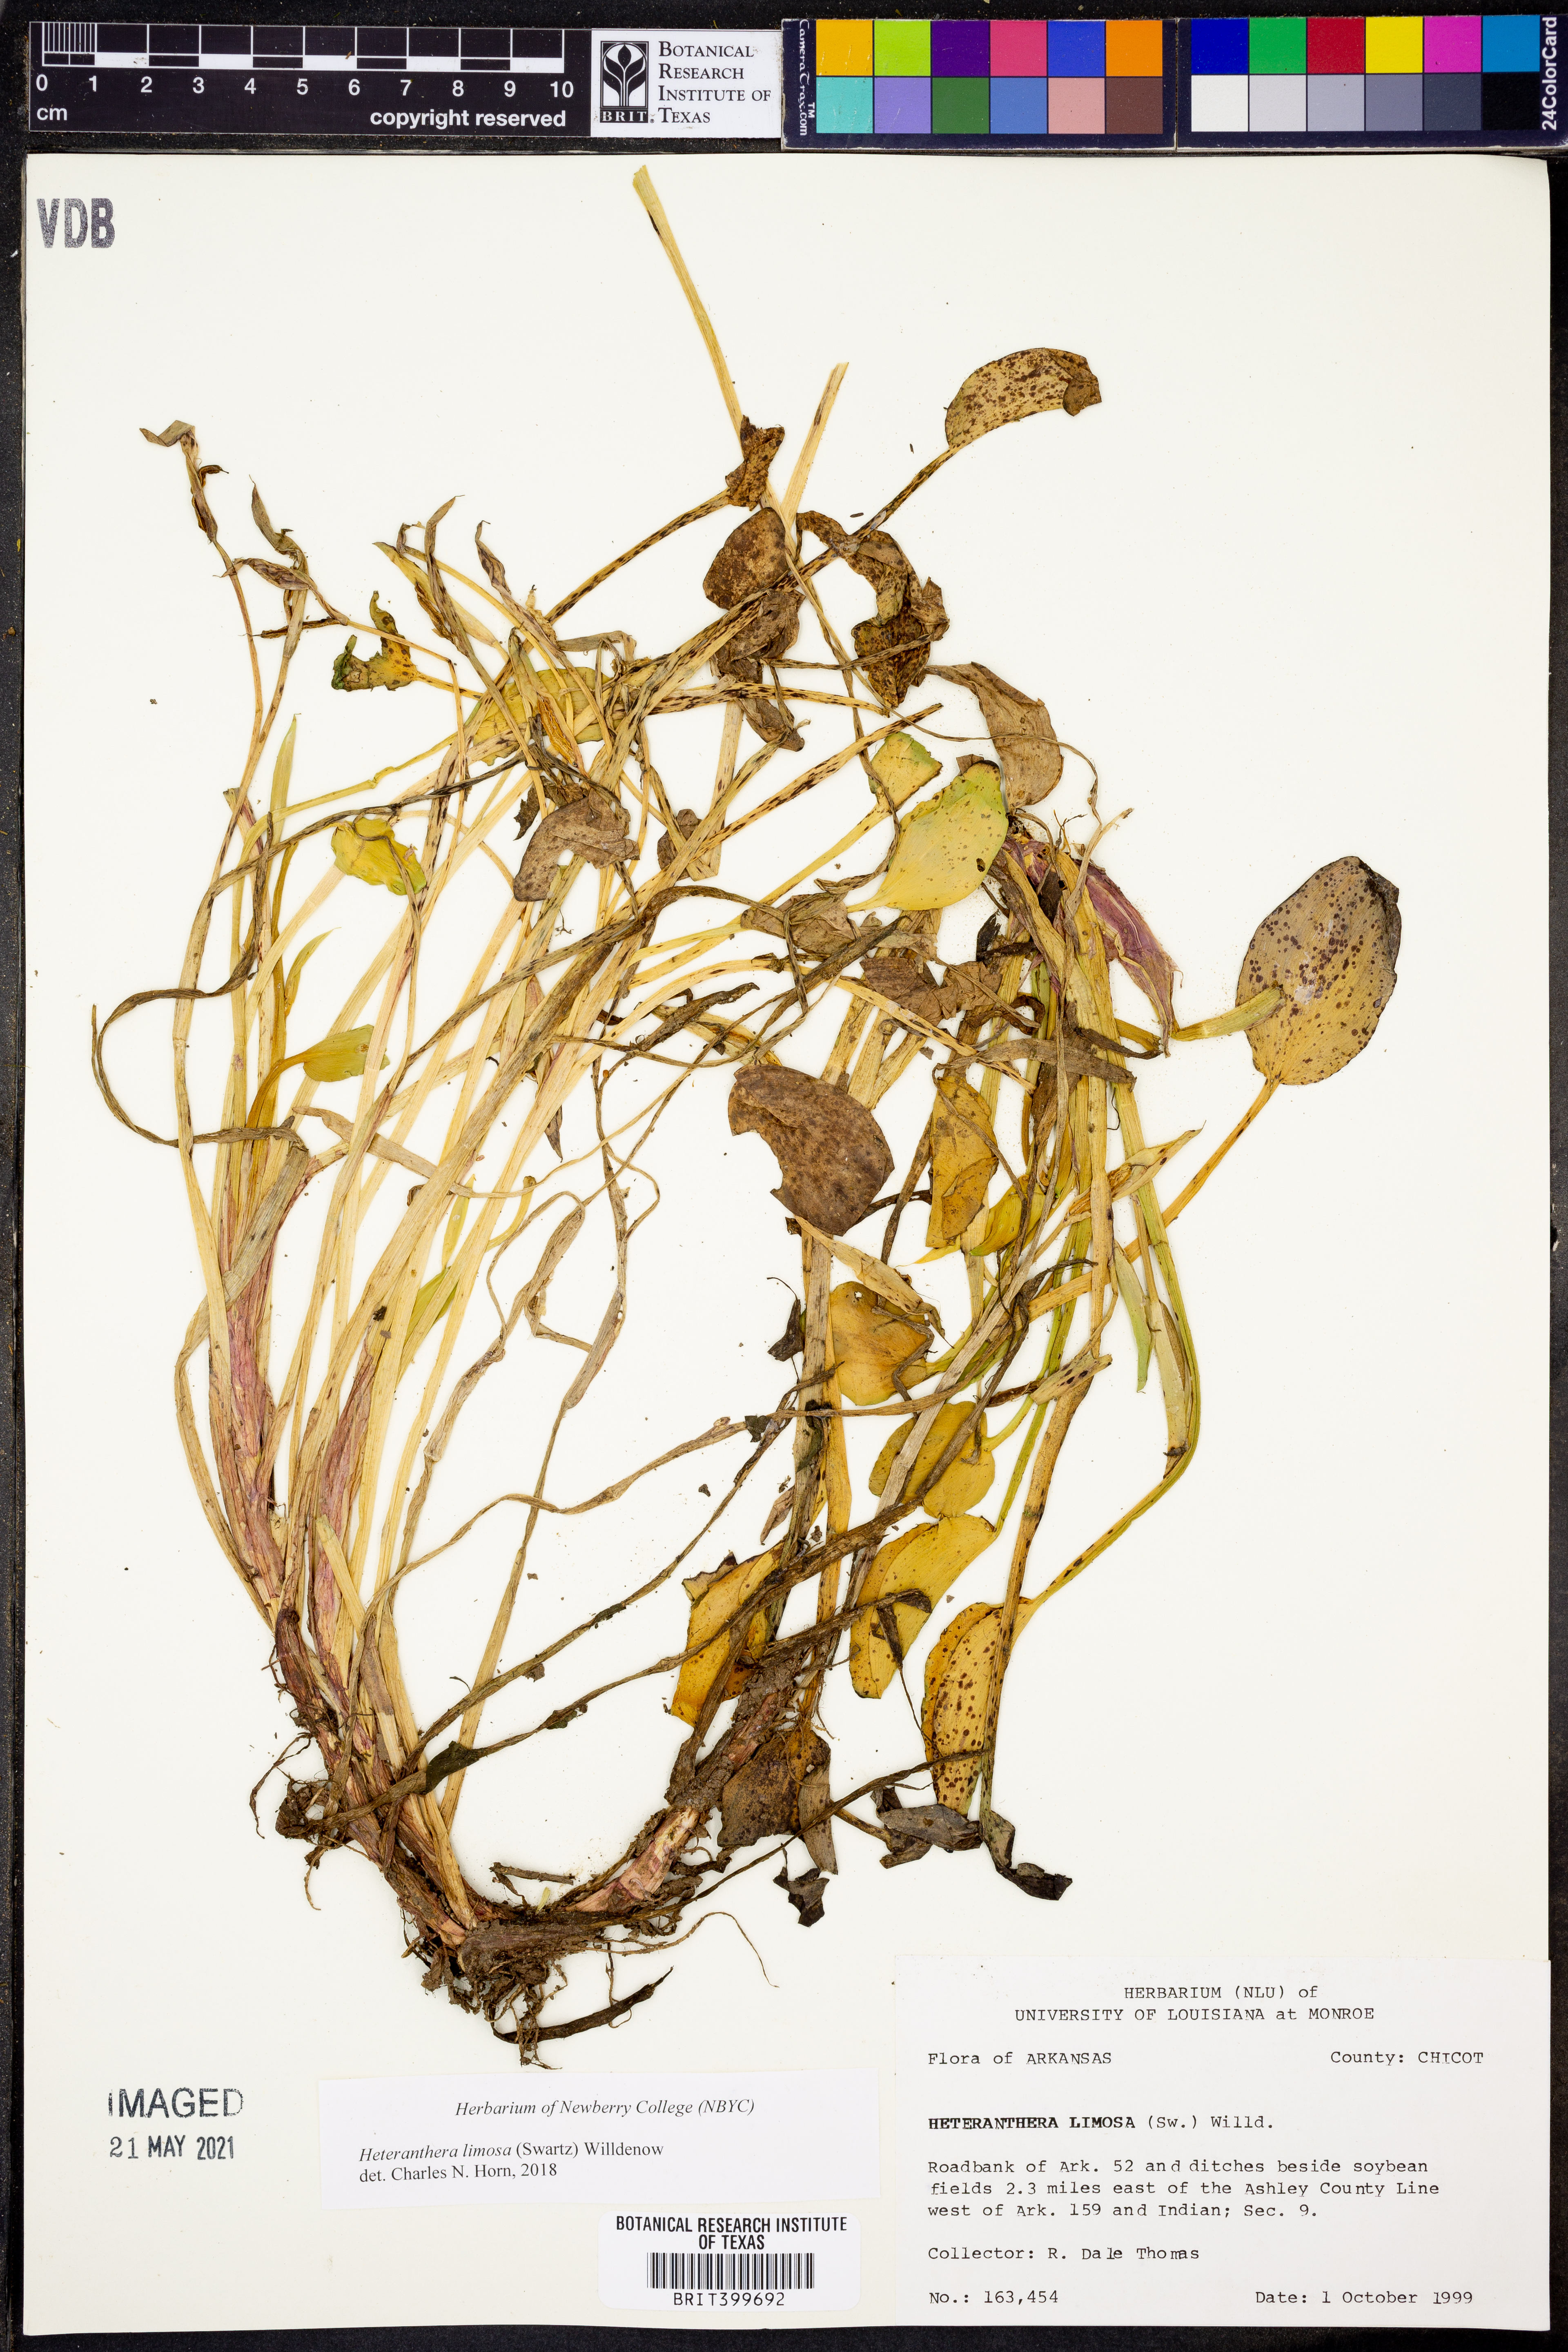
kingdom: Plantae
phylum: Tracheophyta
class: Liliopsida
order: Commelinales
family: Pontederiaceae
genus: Heteranthera
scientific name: Heteranthera limosa
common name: Blue mud-plantain
